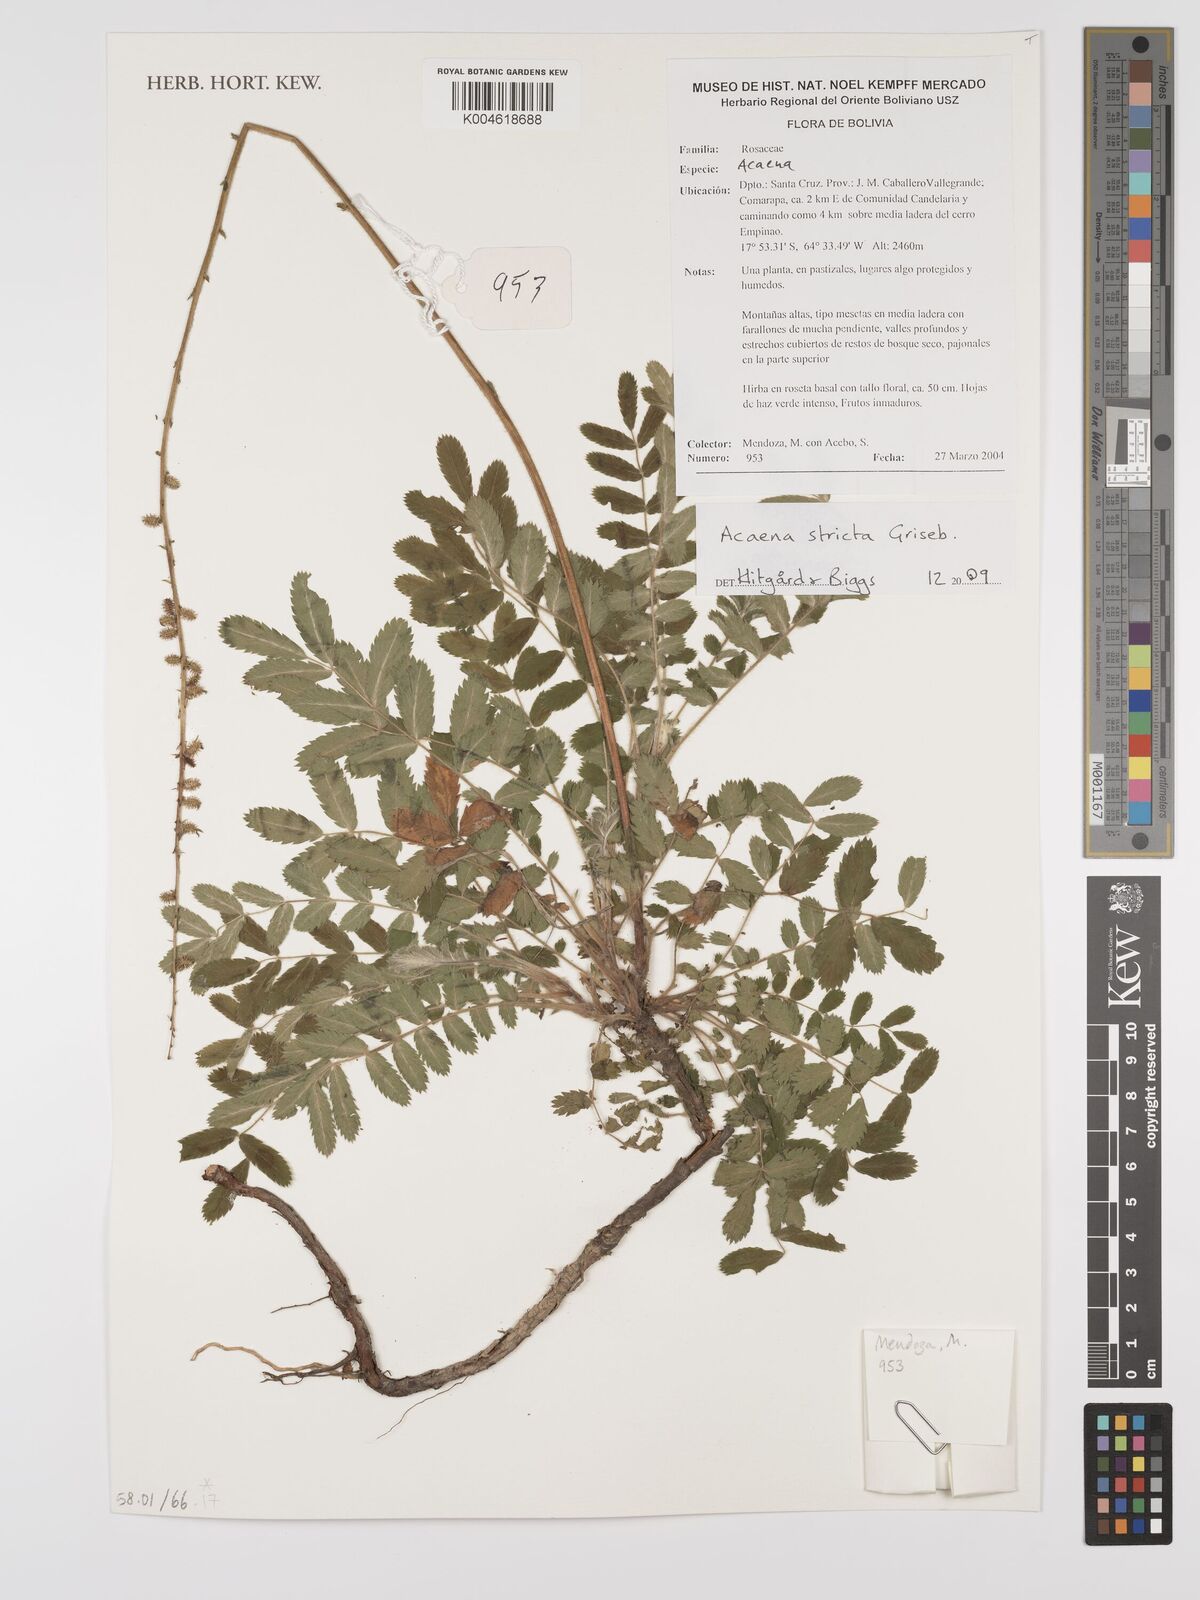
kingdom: Plantae
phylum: Tracheophyta
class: Magnoliopsida
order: Rosales
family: Rosaceae
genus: Acaena
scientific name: Acaena stricta
